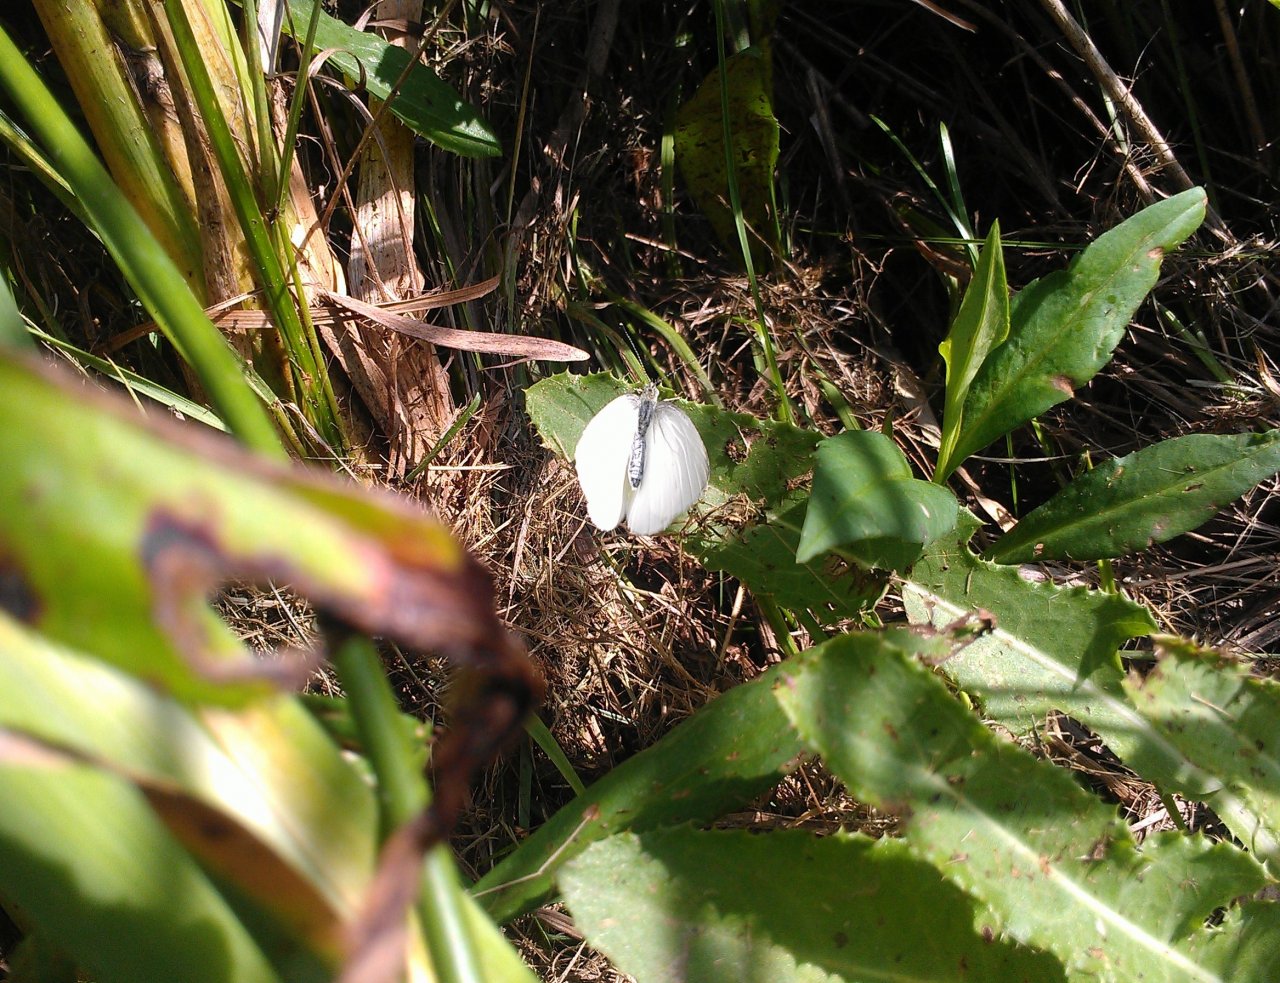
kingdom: Animalia
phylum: Arthropoda
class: Insecta
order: Lepidoptera
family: Pieridae
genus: Pieris
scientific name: Pieris oleracea
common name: Mustard White
